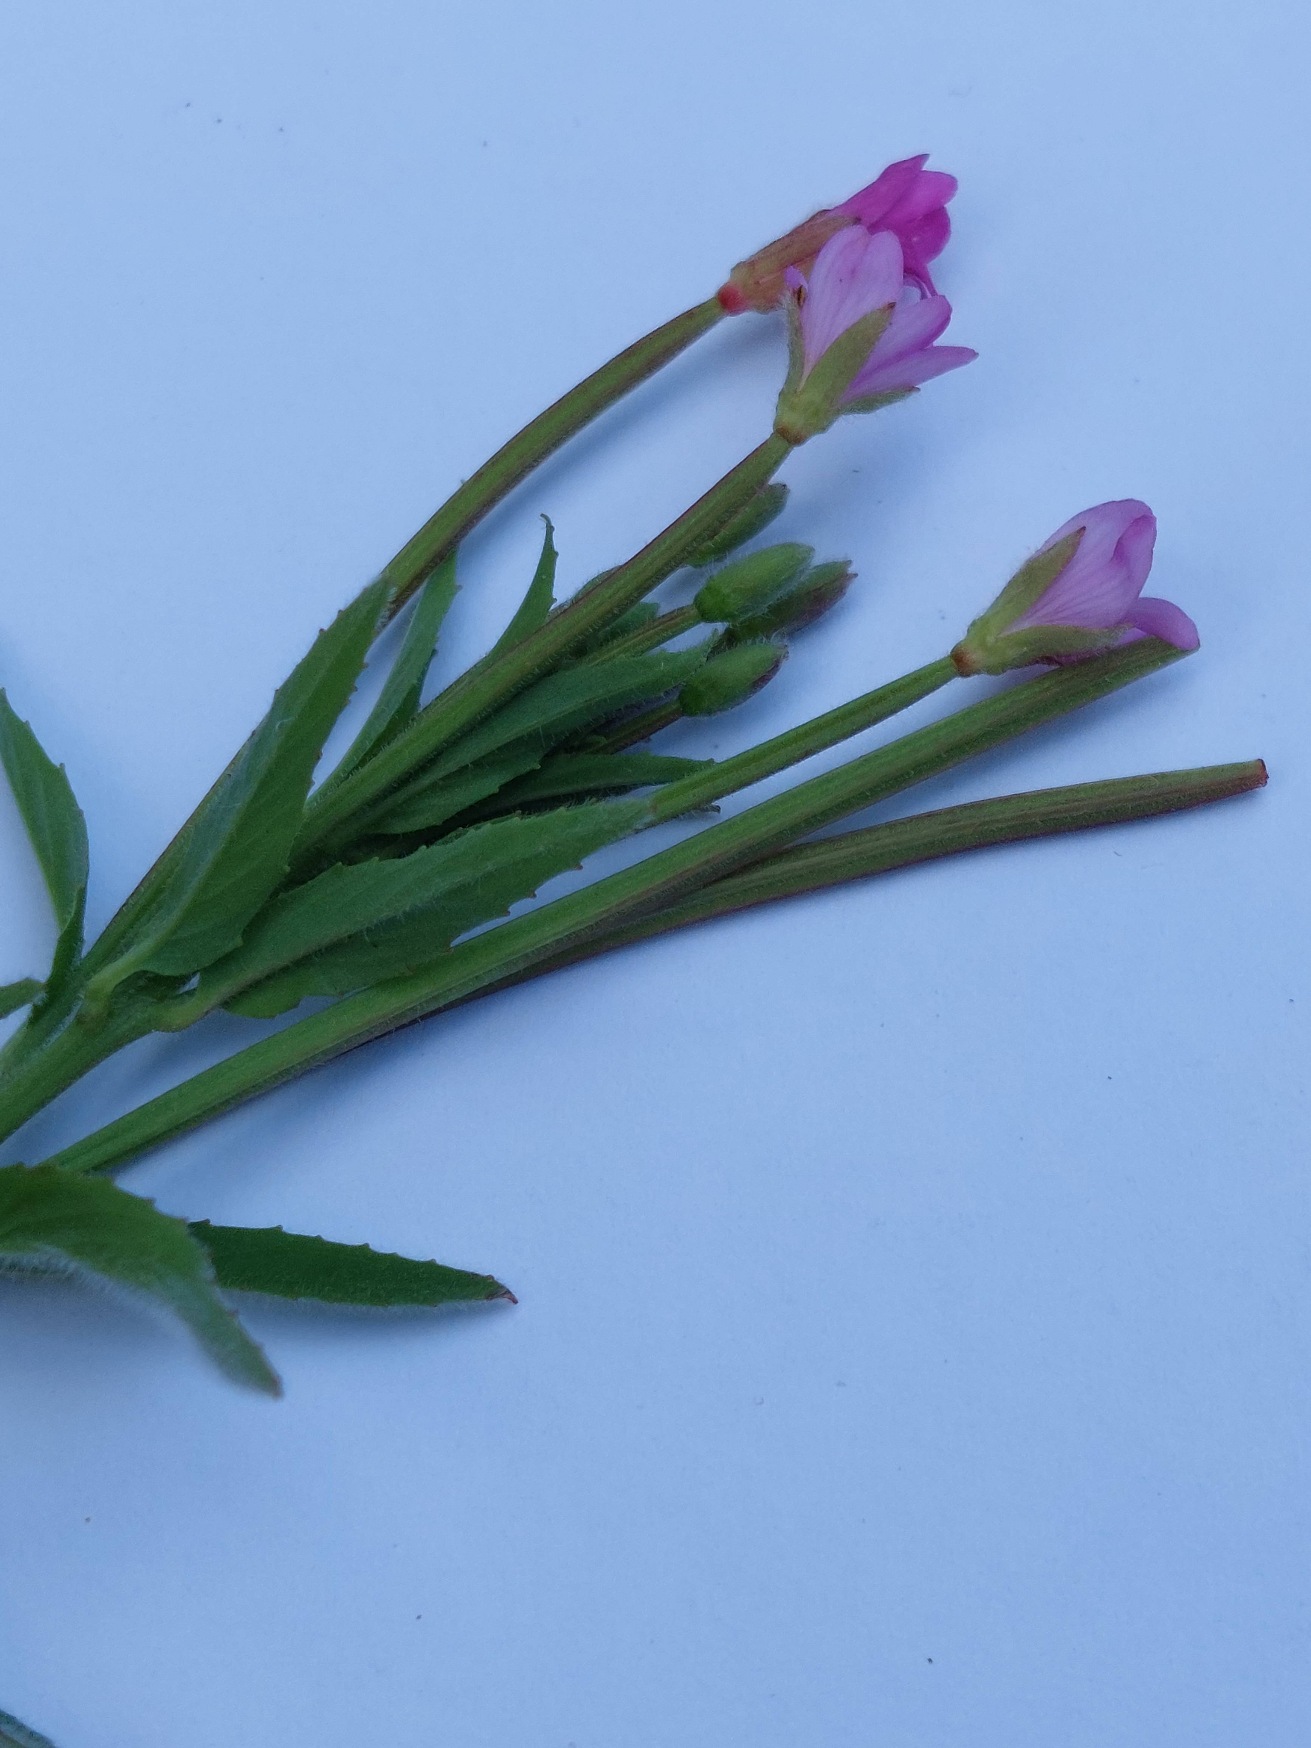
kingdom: Plantae
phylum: Tracheophyta
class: Magnoliopsida
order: Myrtales
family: Onagraceae
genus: Epilobium
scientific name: Epilobium parviflorum
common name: Dunet dueurt
